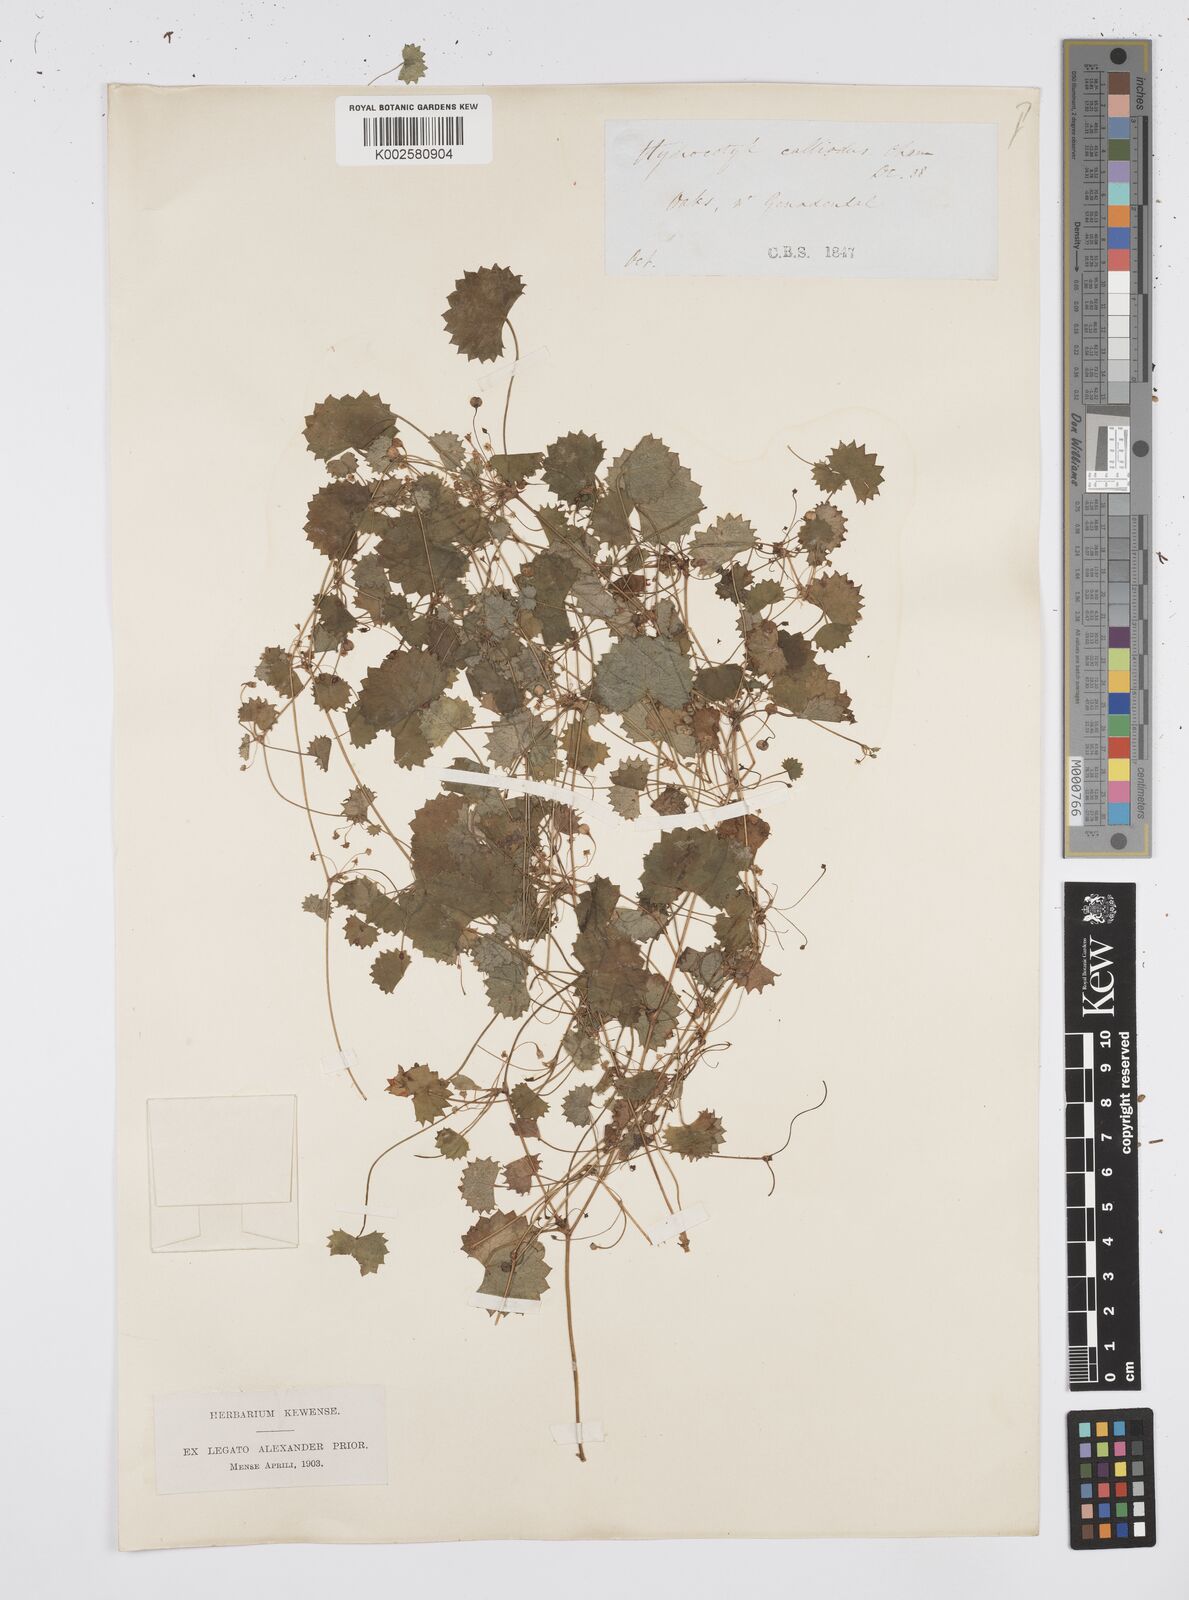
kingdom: Plantae
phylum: Tracheophyta
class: Magnoliopsida
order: Apiales
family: Apiaceae
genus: Centella
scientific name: Centella
